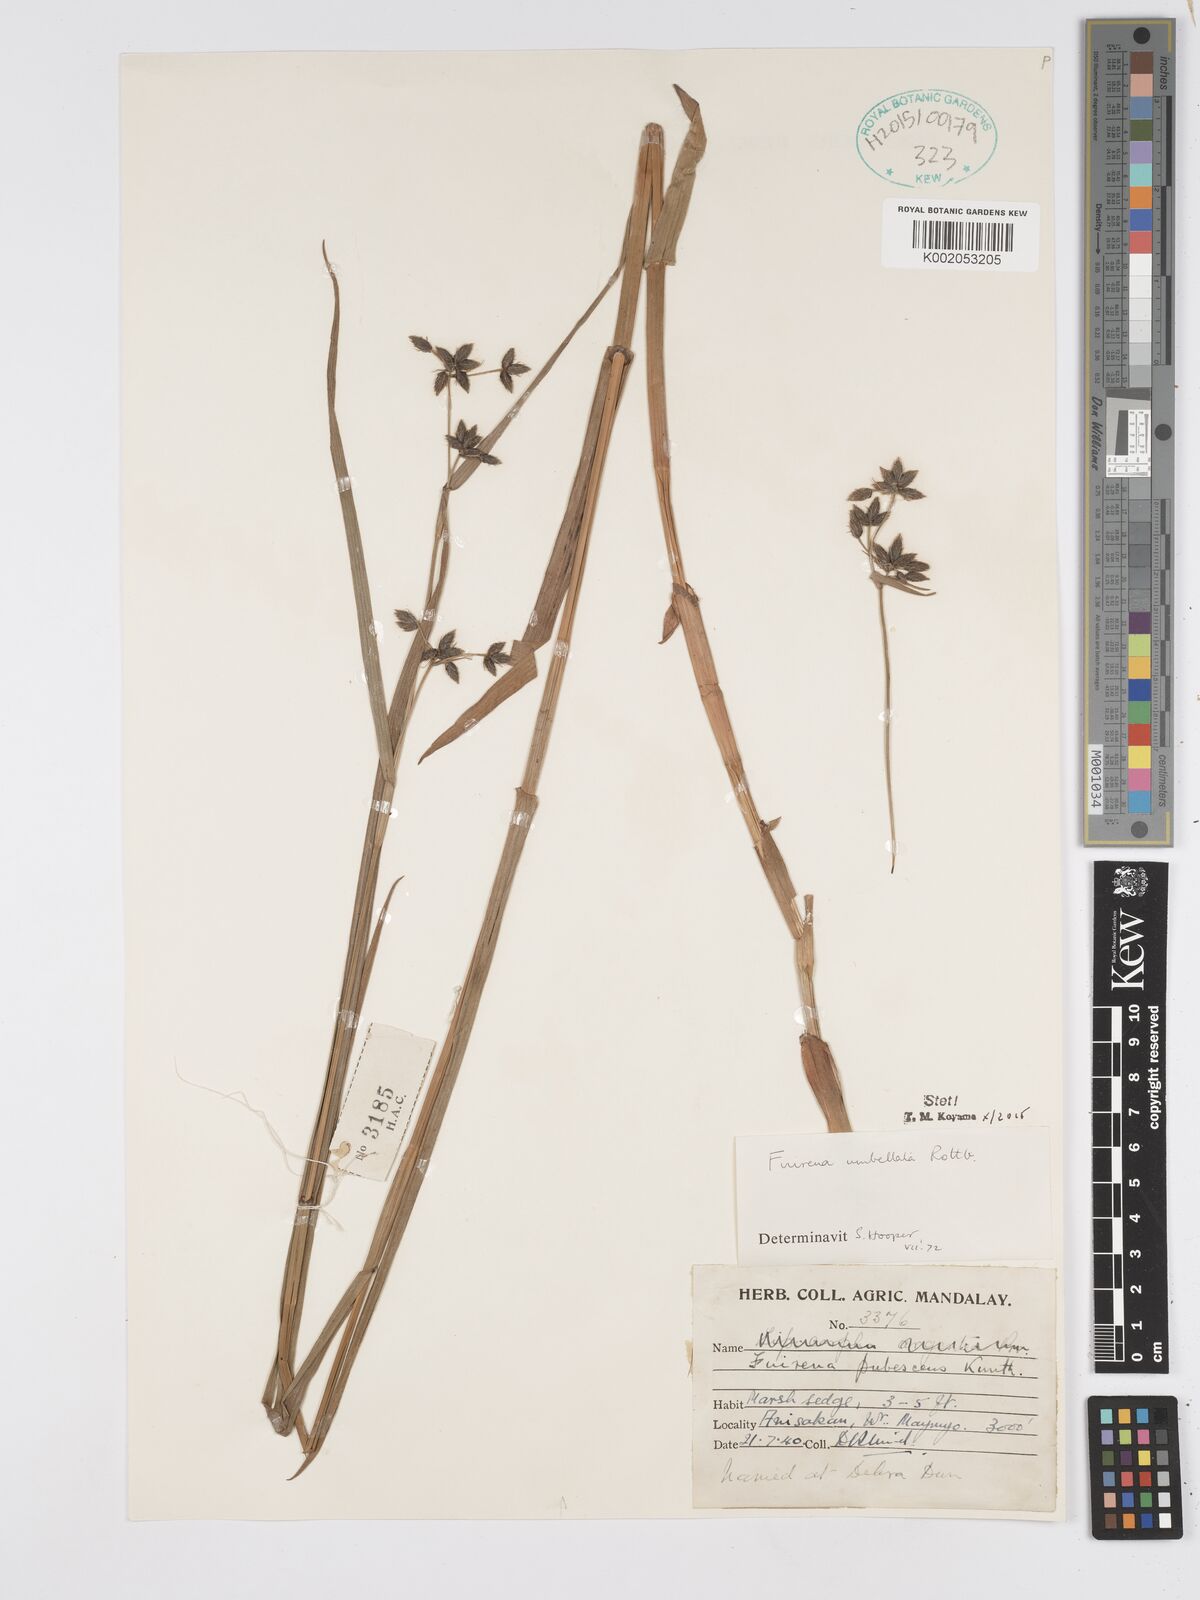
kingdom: Plantae
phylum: Tracheophyta
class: Liliopsida
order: Poales
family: Cyperaceae
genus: Fuirena
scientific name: Fuirena umbellata
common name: Yefen
